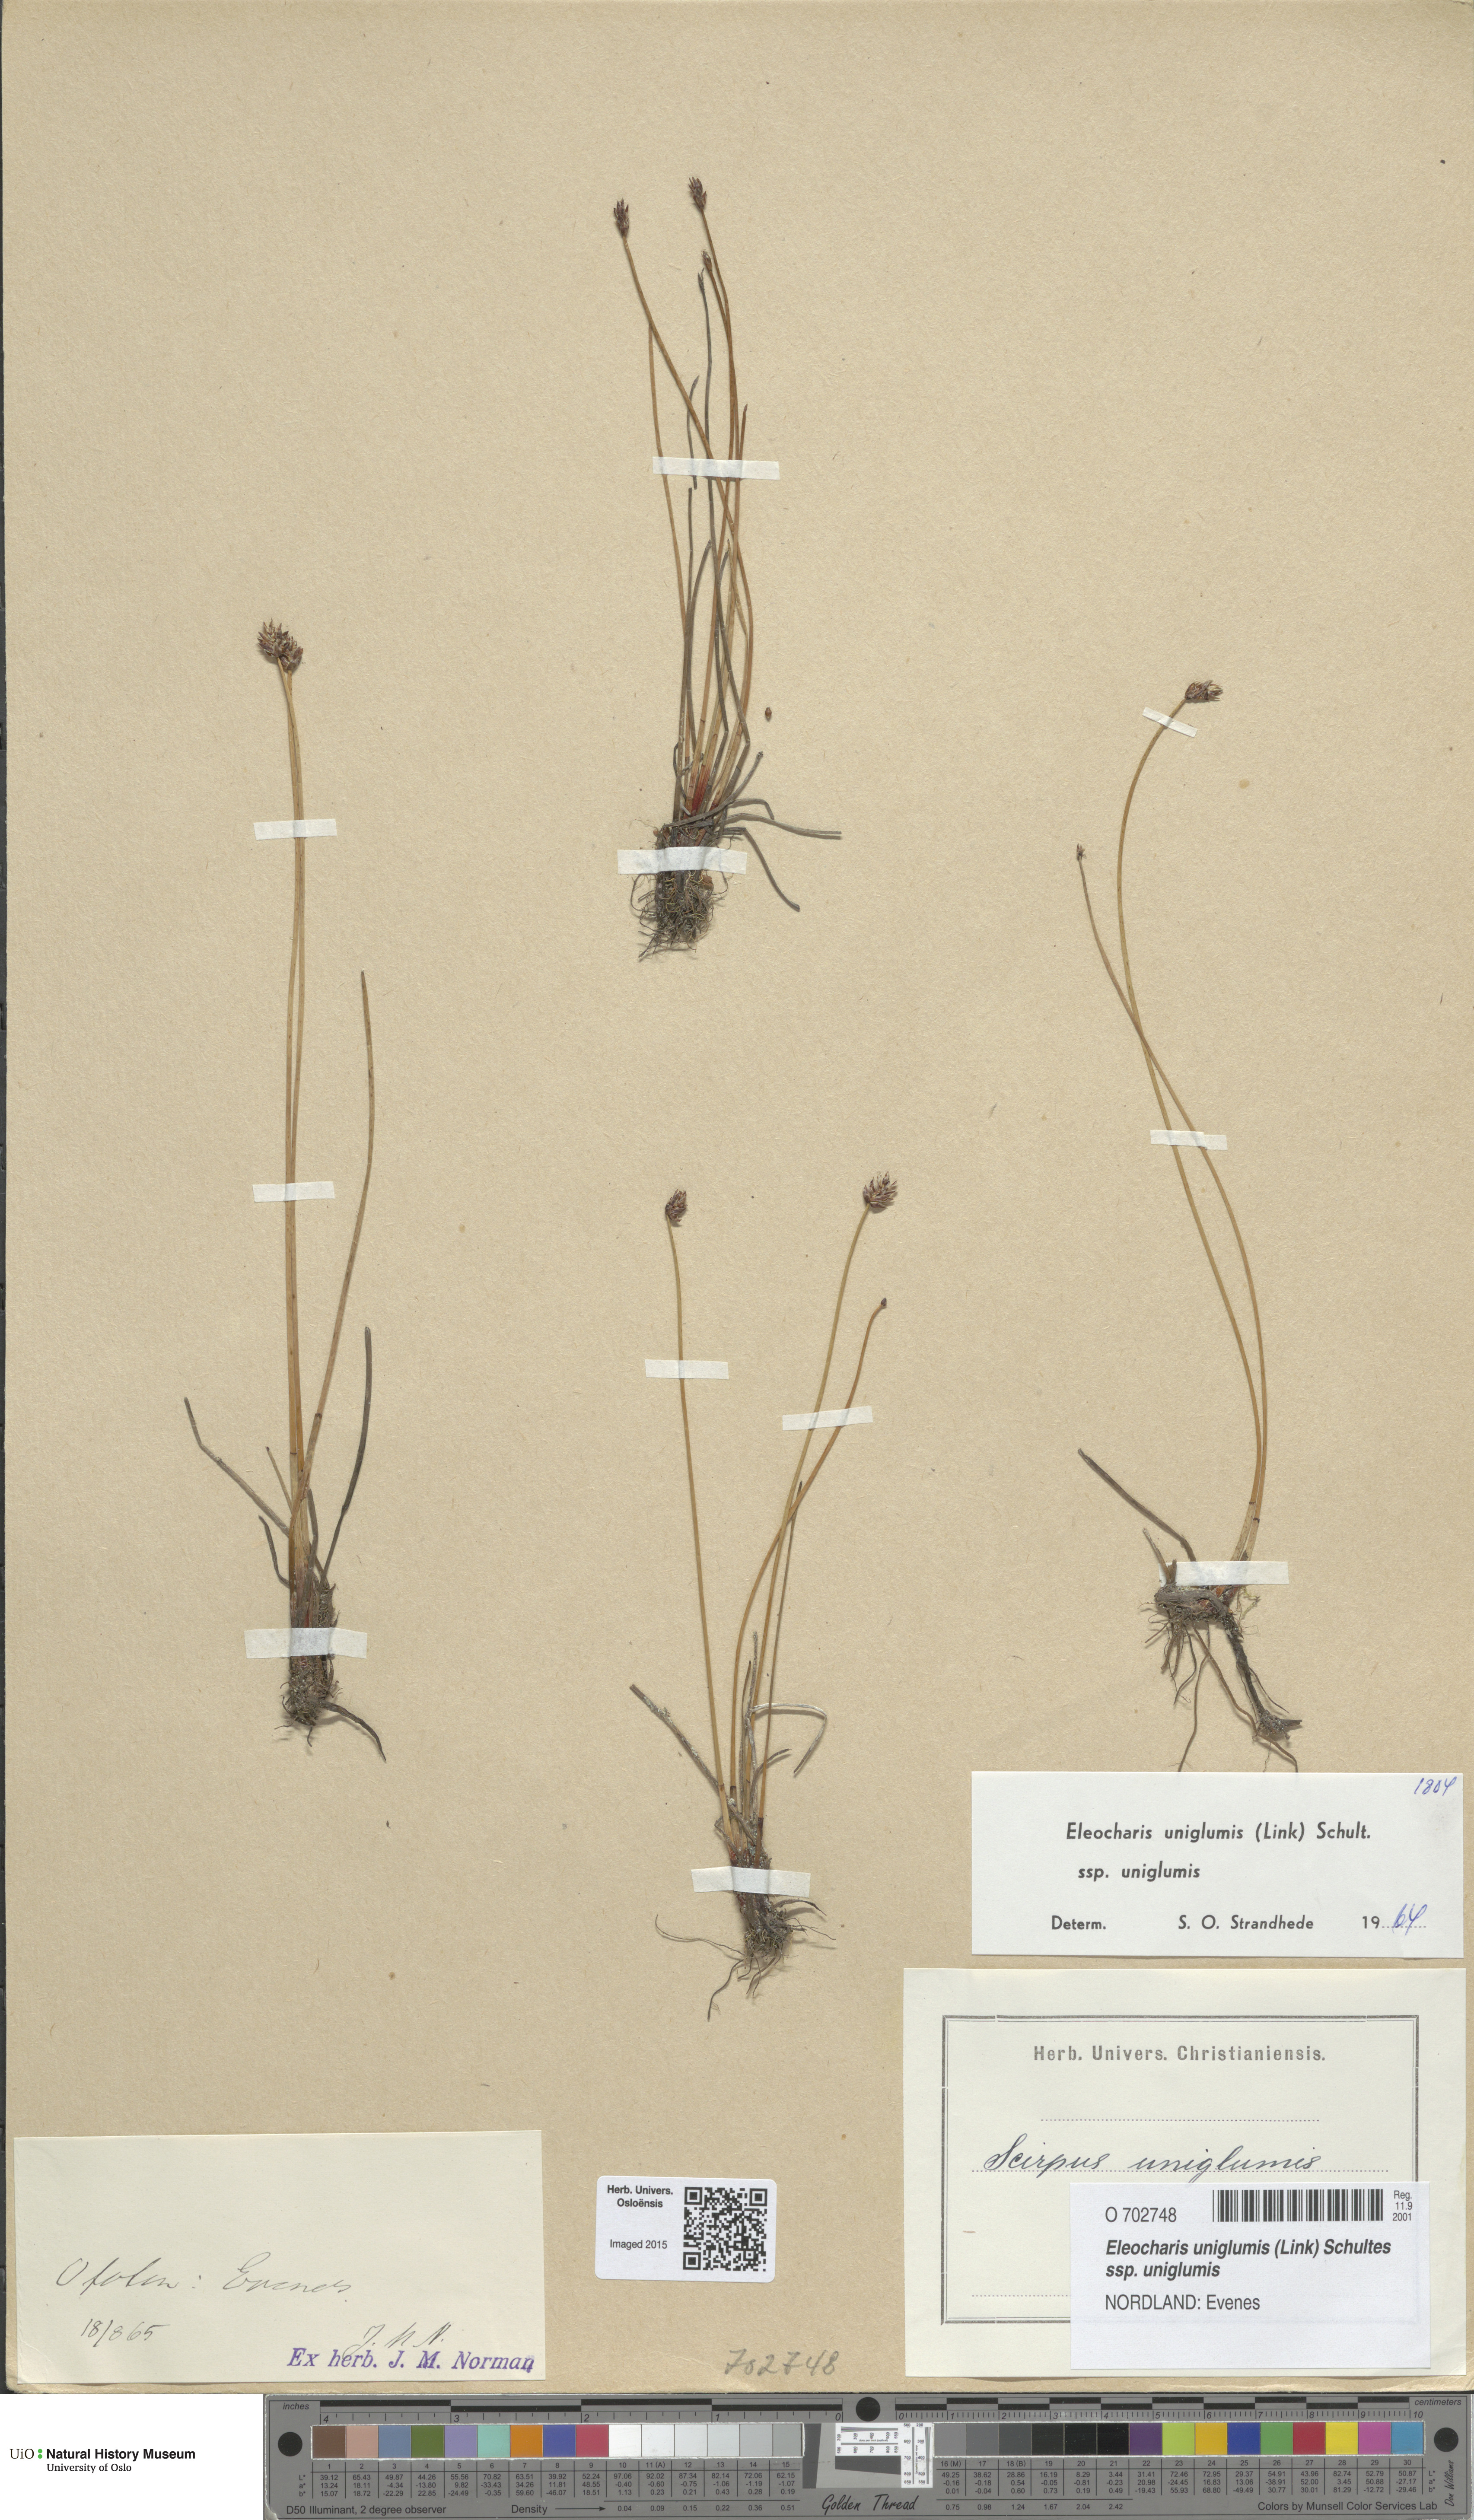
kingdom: Plantae
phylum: Tracheophyta
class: Liliopsida
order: Poales
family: Cyperaceae
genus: Eleocharis
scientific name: Eleocharis uniglumis
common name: Slender spike-rush
